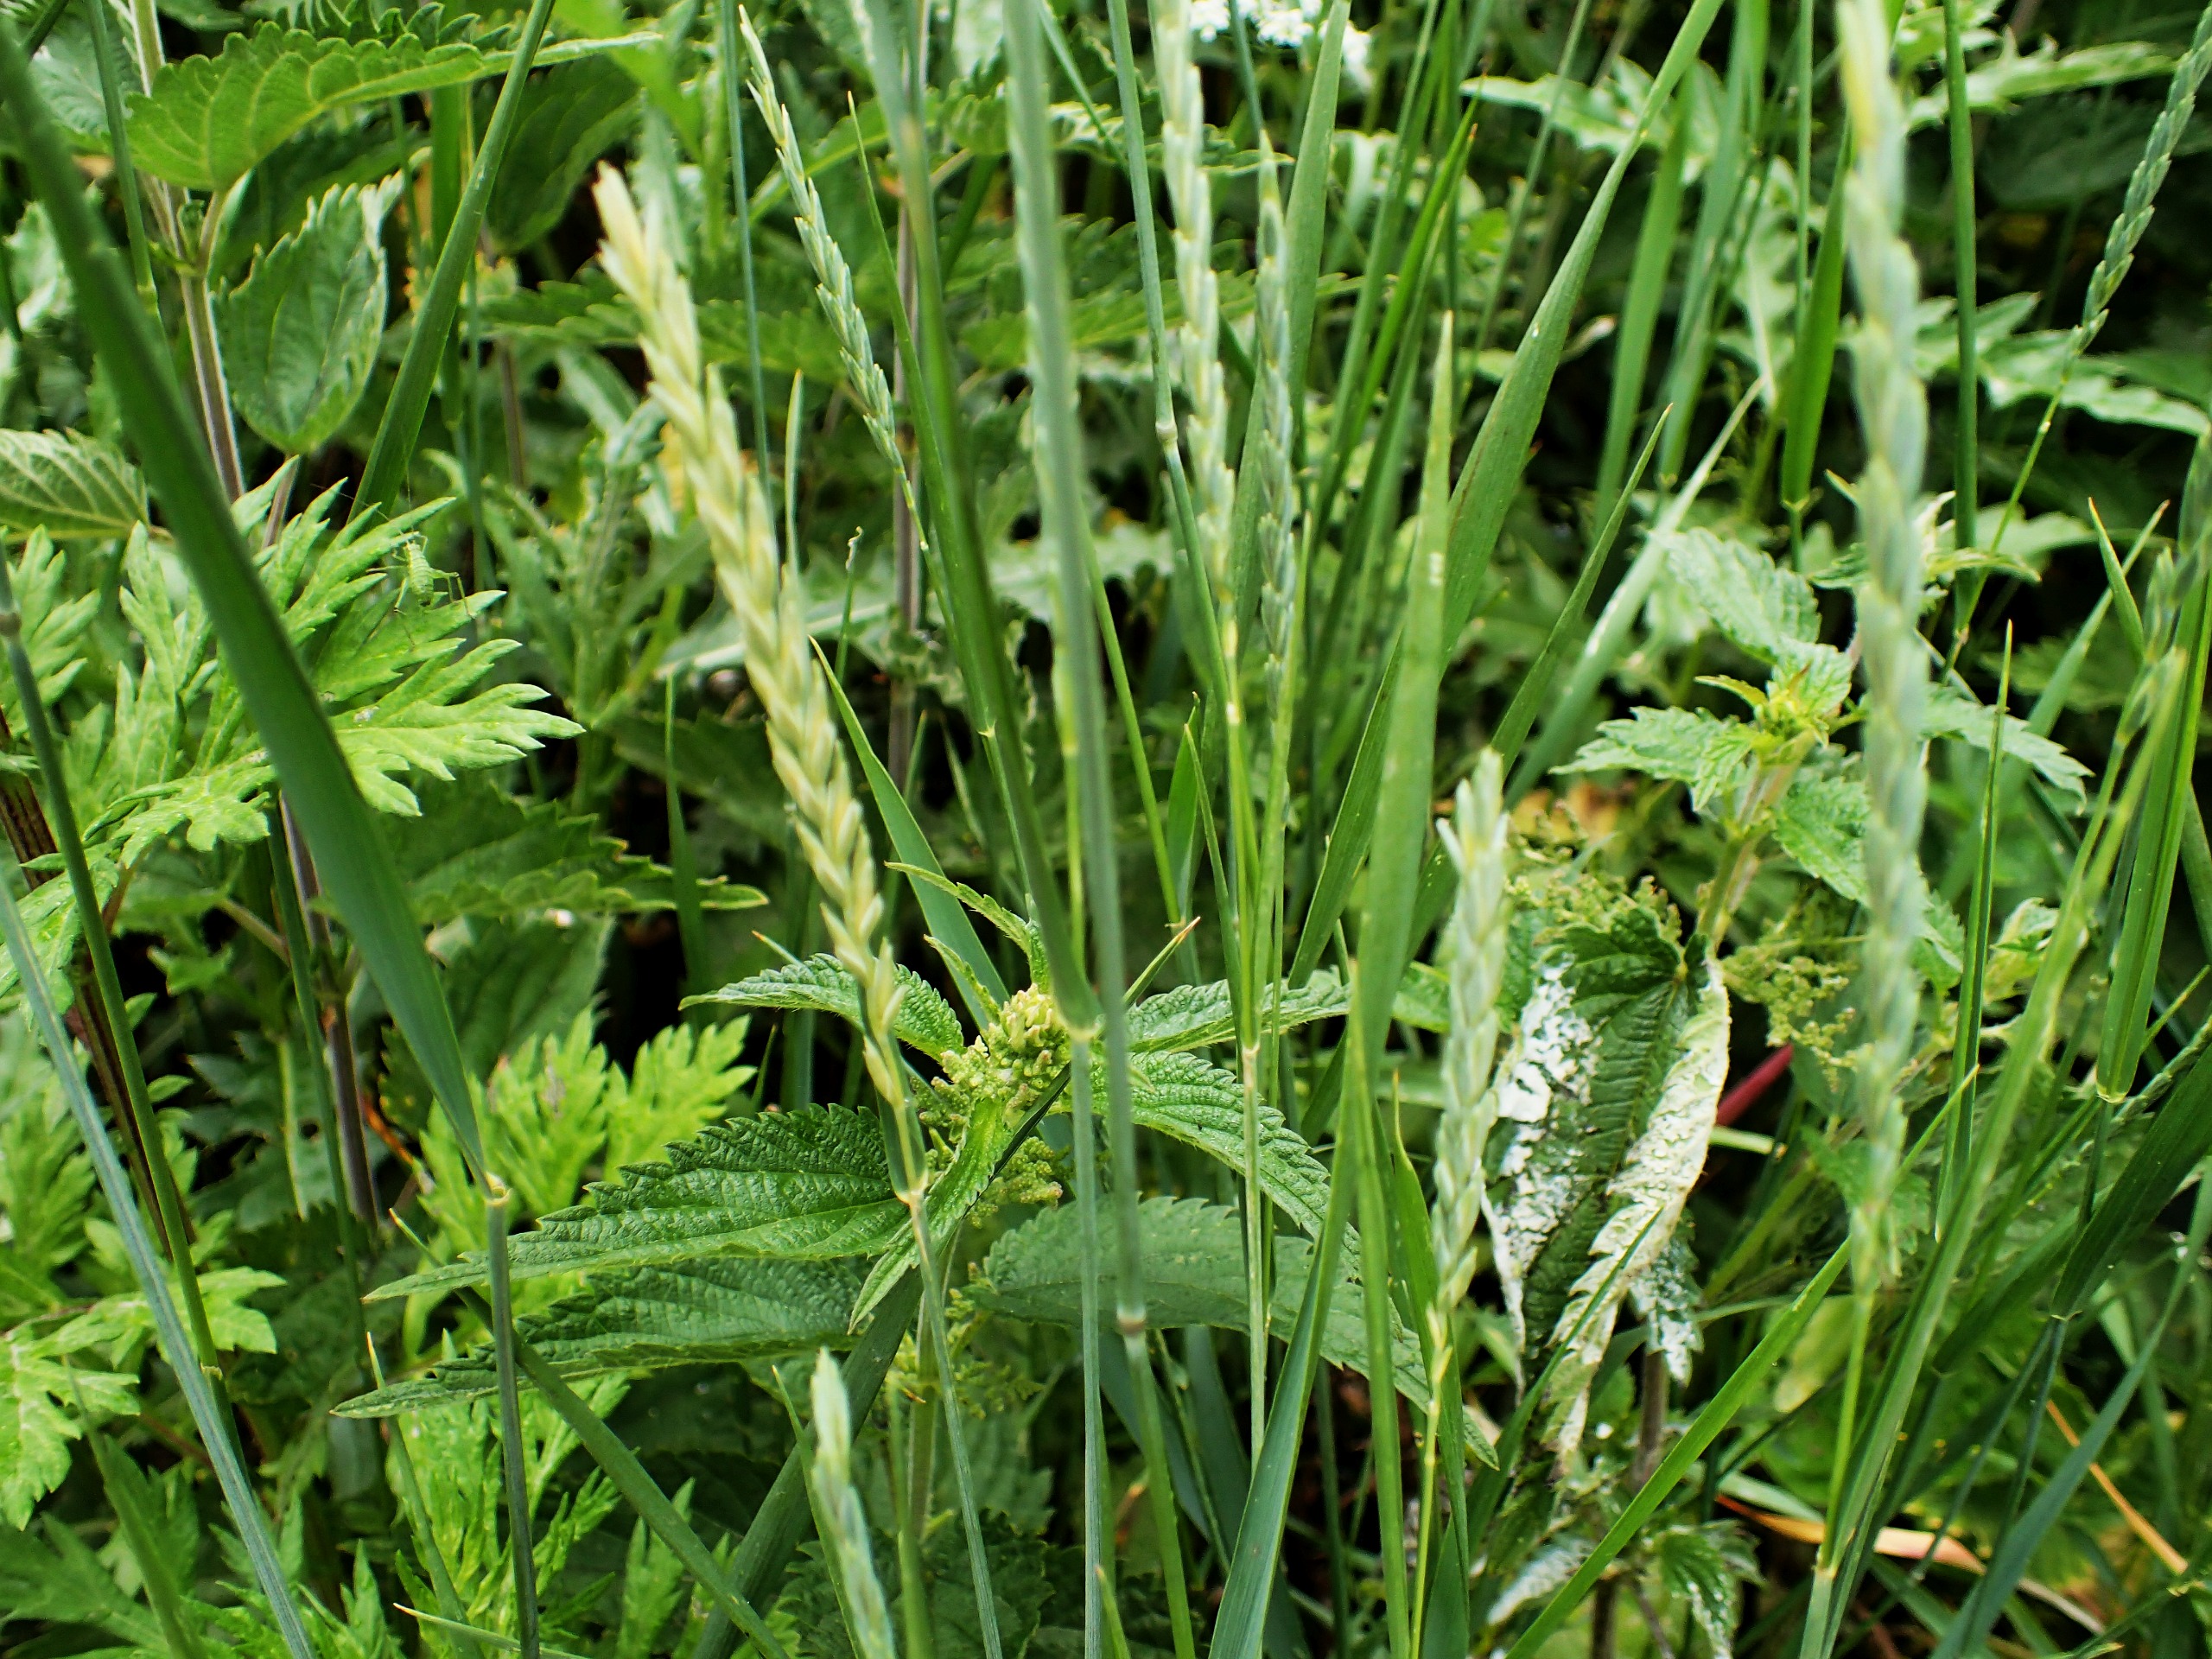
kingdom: Plantae
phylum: Tracheophyta
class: Liliopsida
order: Poales
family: Poaceae
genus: Elymus
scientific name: Elymus repens
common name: Almindelig kvik
